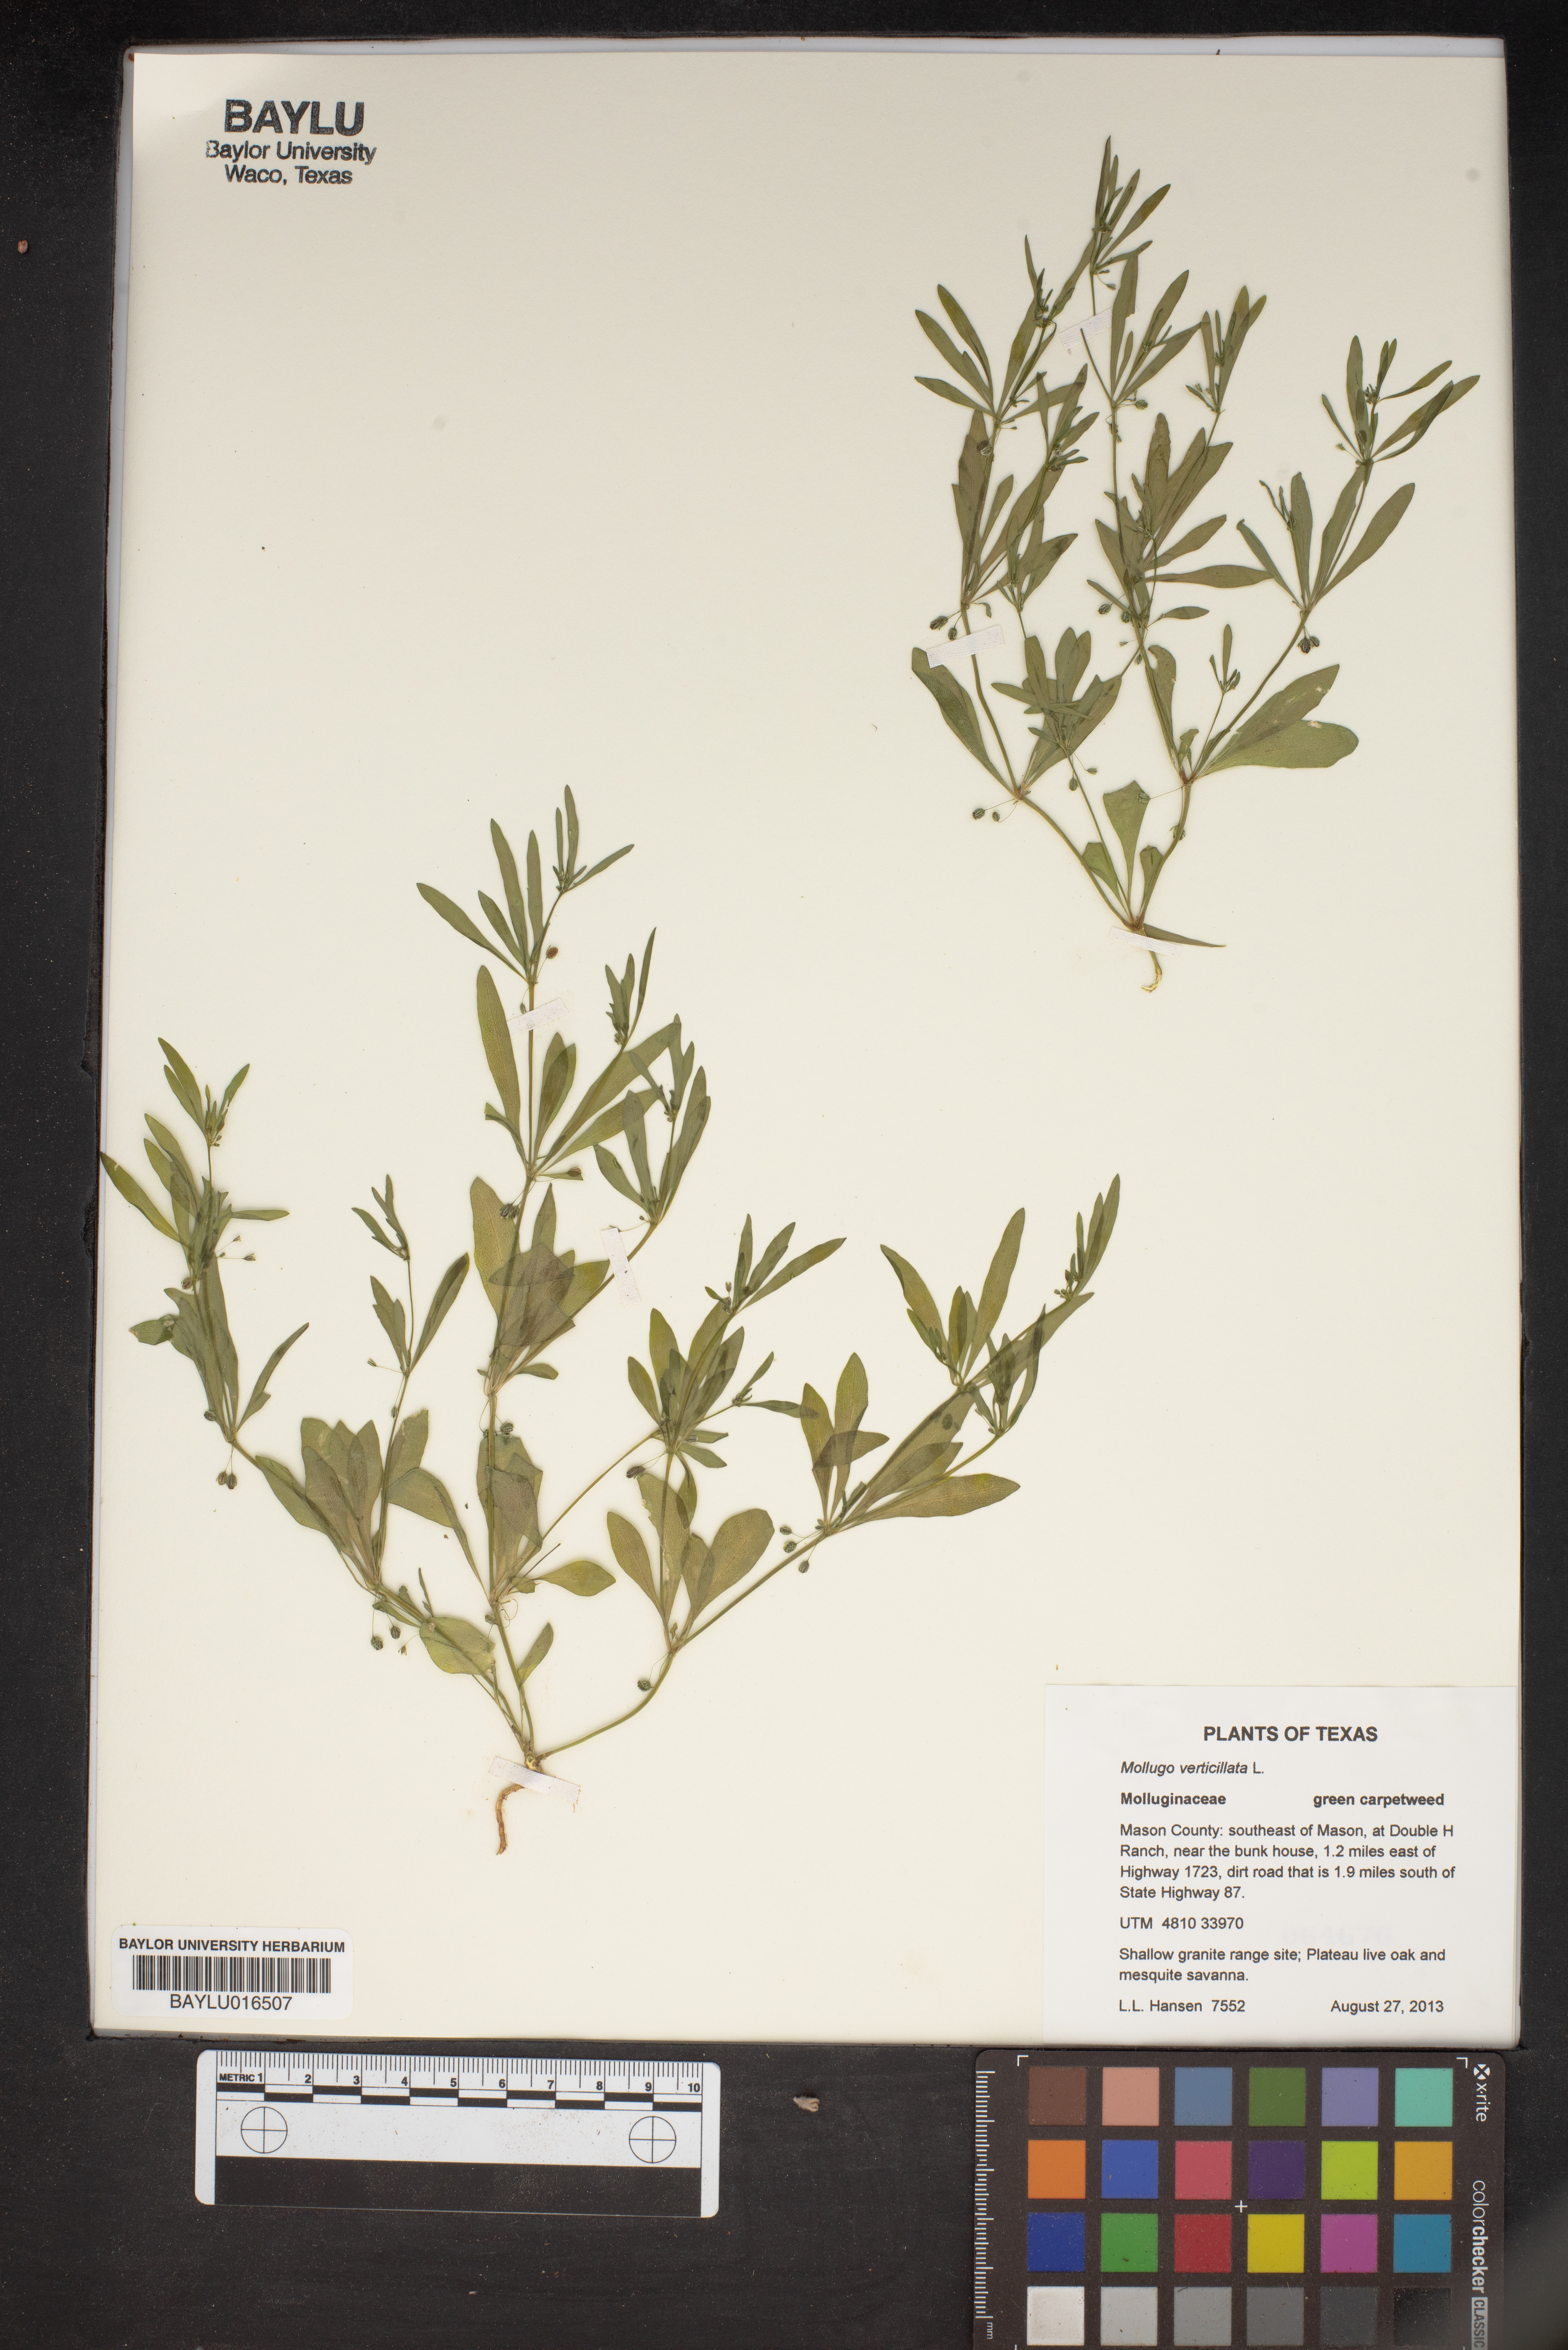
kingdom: Plantae
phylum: Tracheophyta
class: Magnoliopsida
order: Caryophyllales
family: Molluginaceae
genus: Mollugo
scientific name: Mollugo verticillata
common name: Green carpetweed
